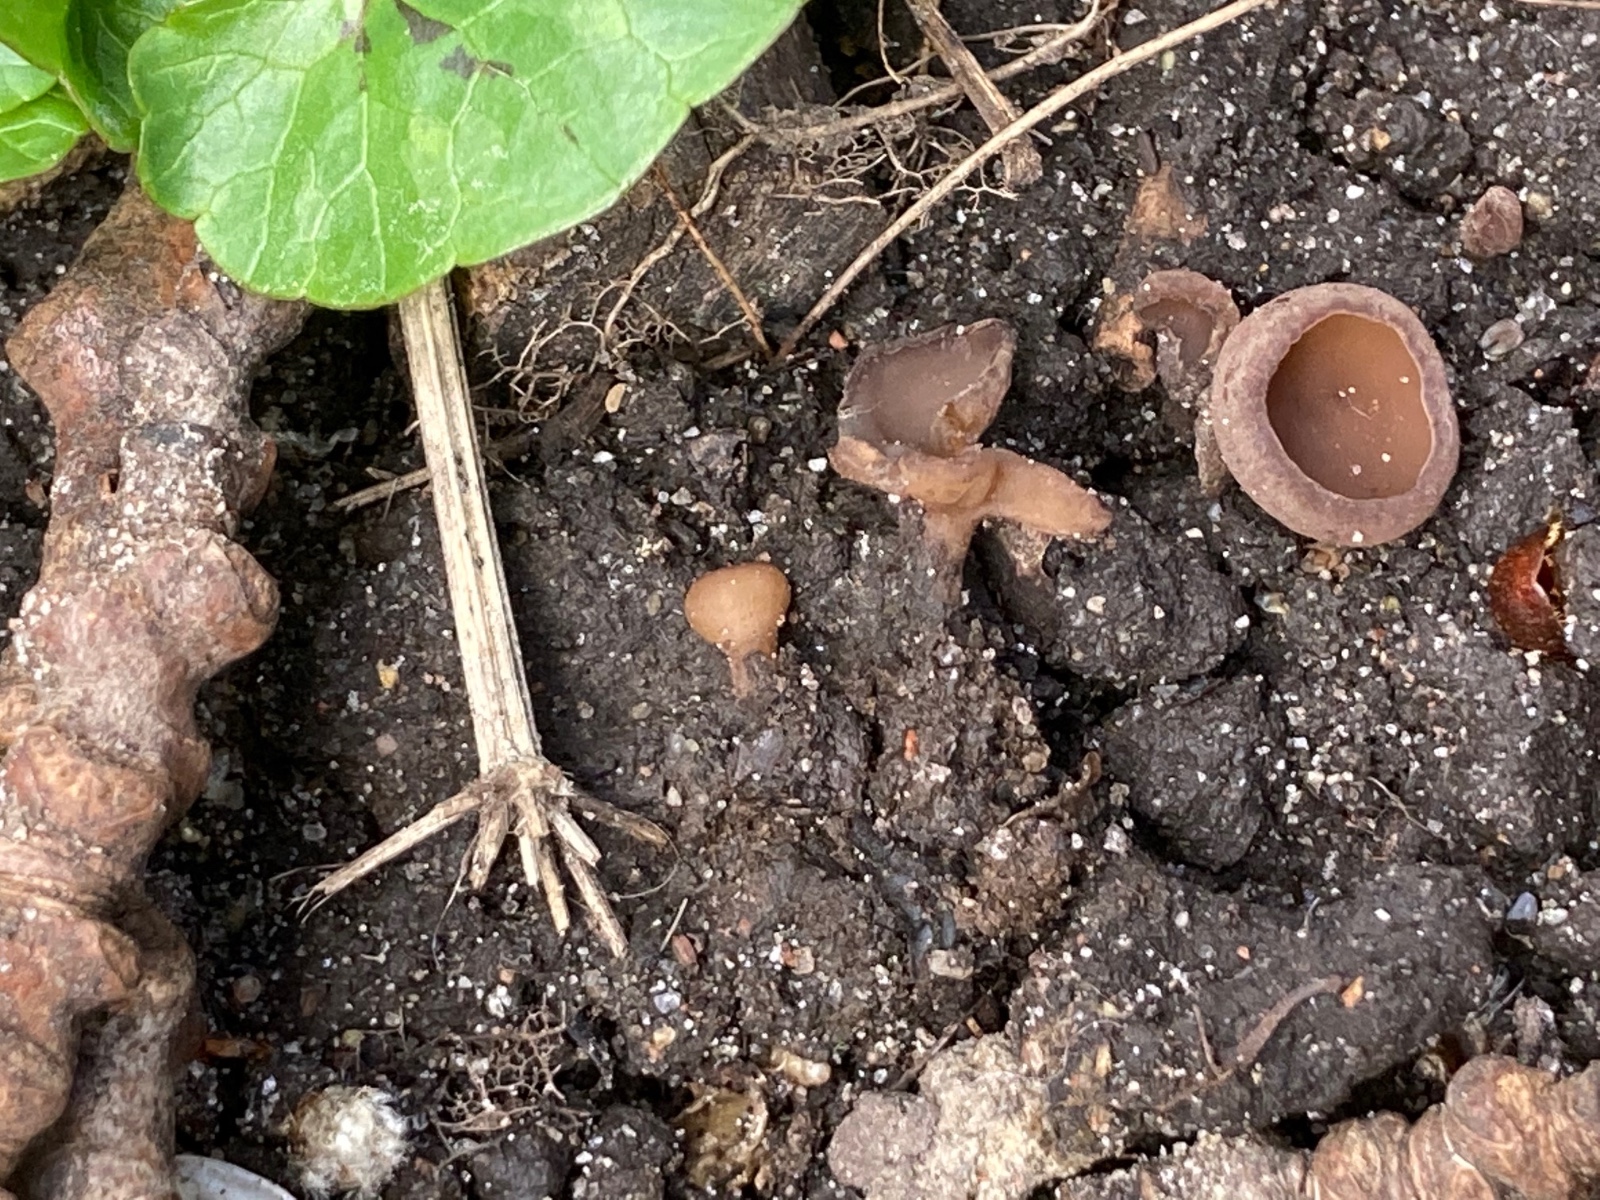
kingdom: Fungi
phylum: Ascomycota
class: Leotiomycetes
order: Helotiales
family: Sclerotiniaceae
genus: Dumontinia
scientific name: Dumontinia tuberosa
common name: anemone-knoldskive
